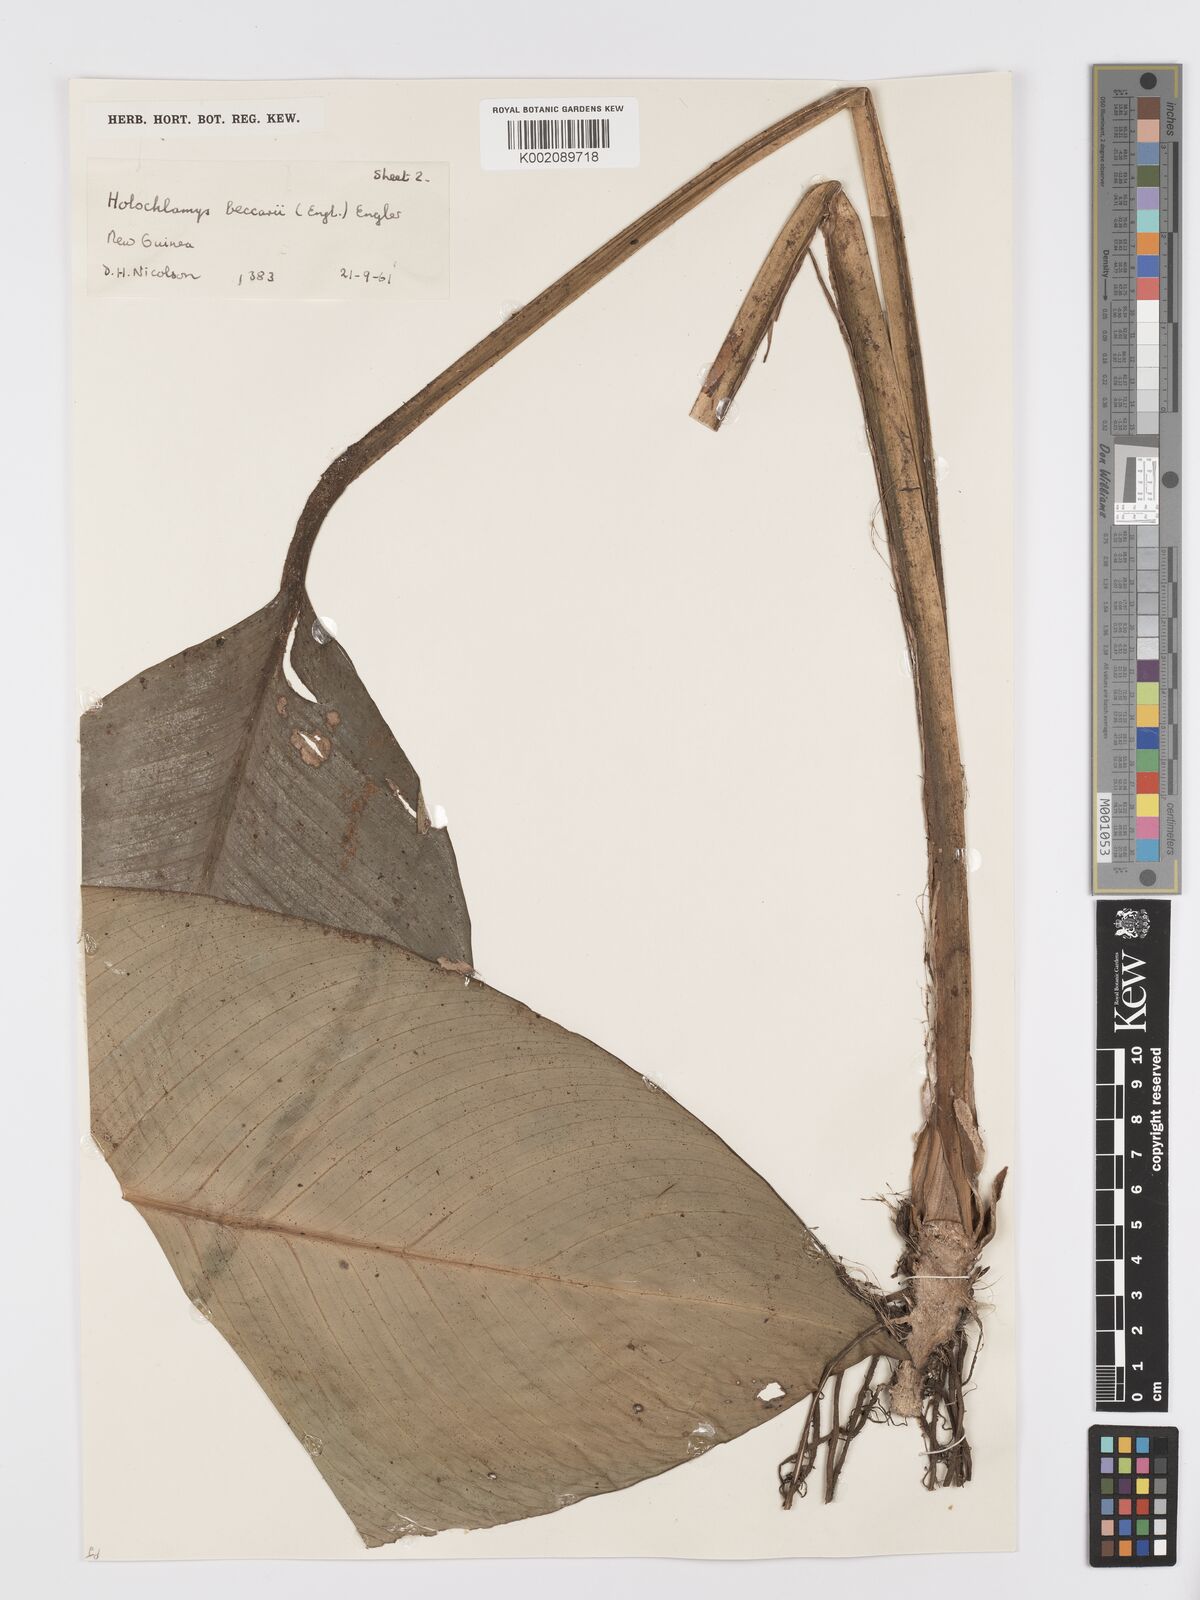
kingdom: Plantae
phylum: Tracheophyta
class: Liliopsida
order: Alismatales
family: Araceae
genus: Holochlamys
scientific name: Holochlamys beccarii
